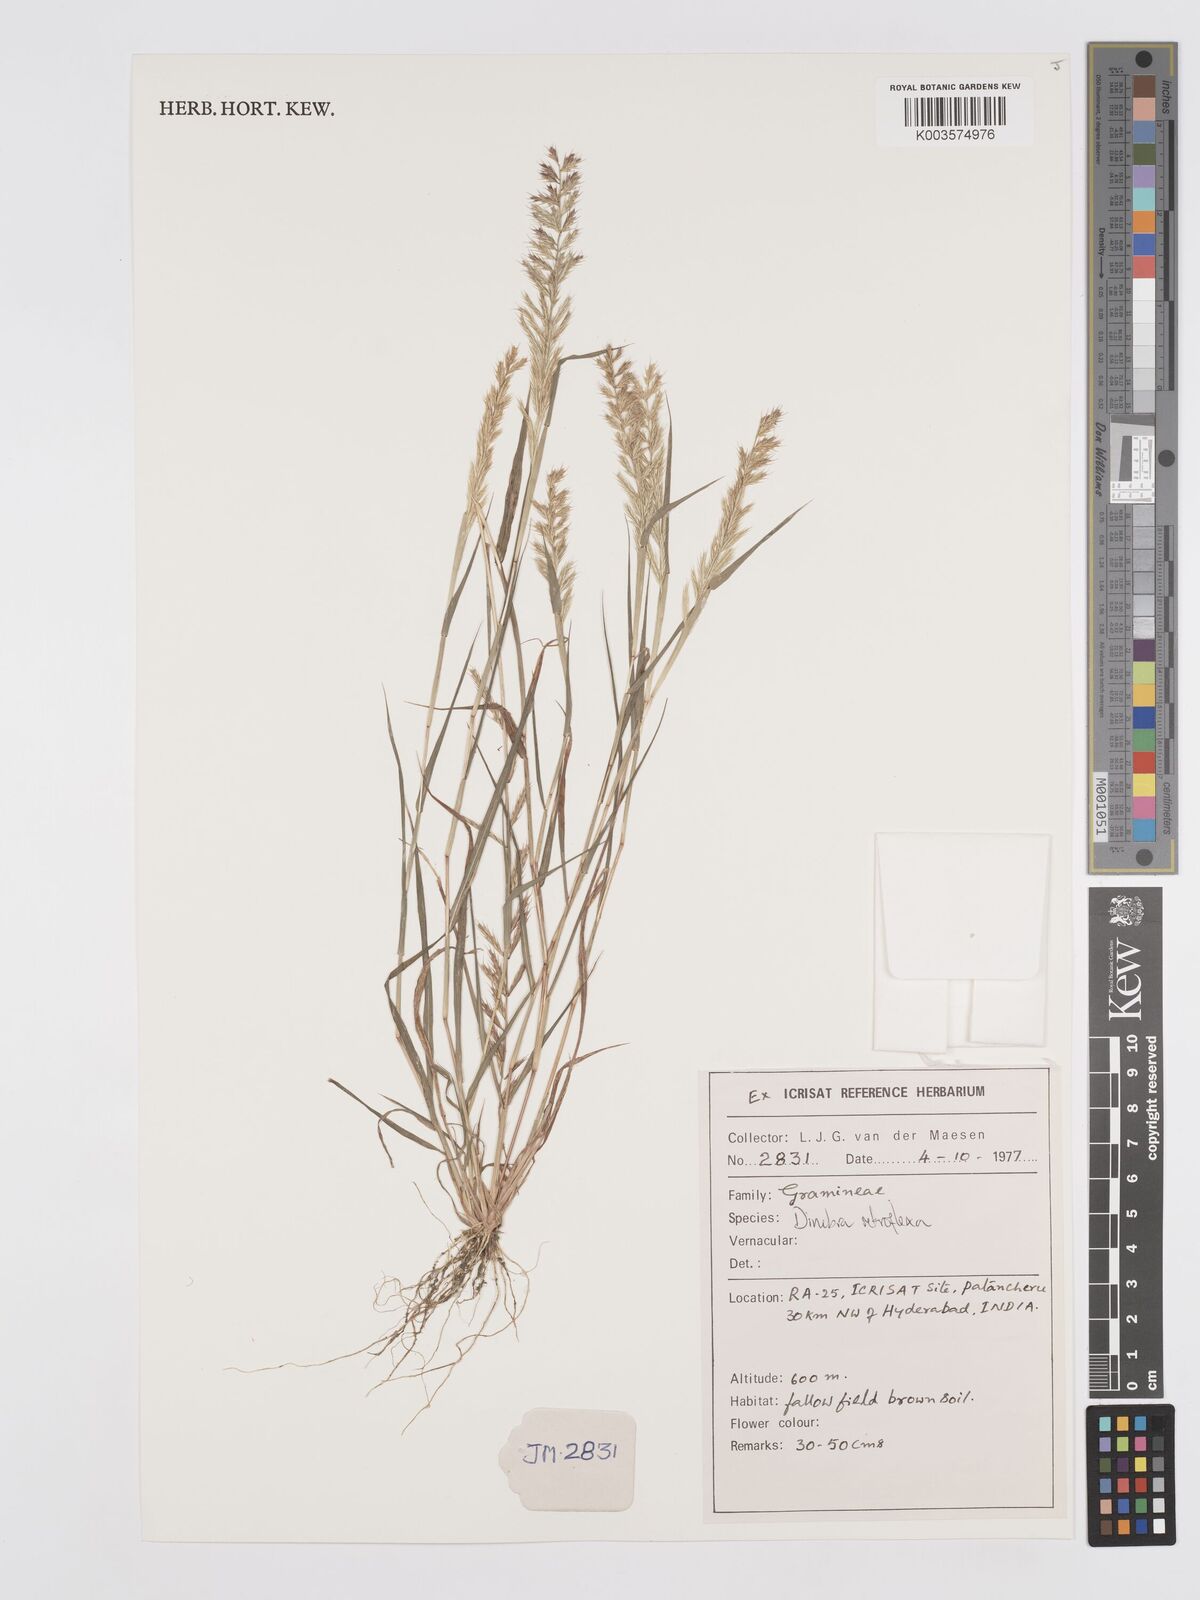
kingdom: Plantae
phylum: Tracheophyta
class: Liliopsida
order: Poales
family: Poaceae
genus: Dinebra
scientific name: Dinebra retroflexa
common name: Viper grass
